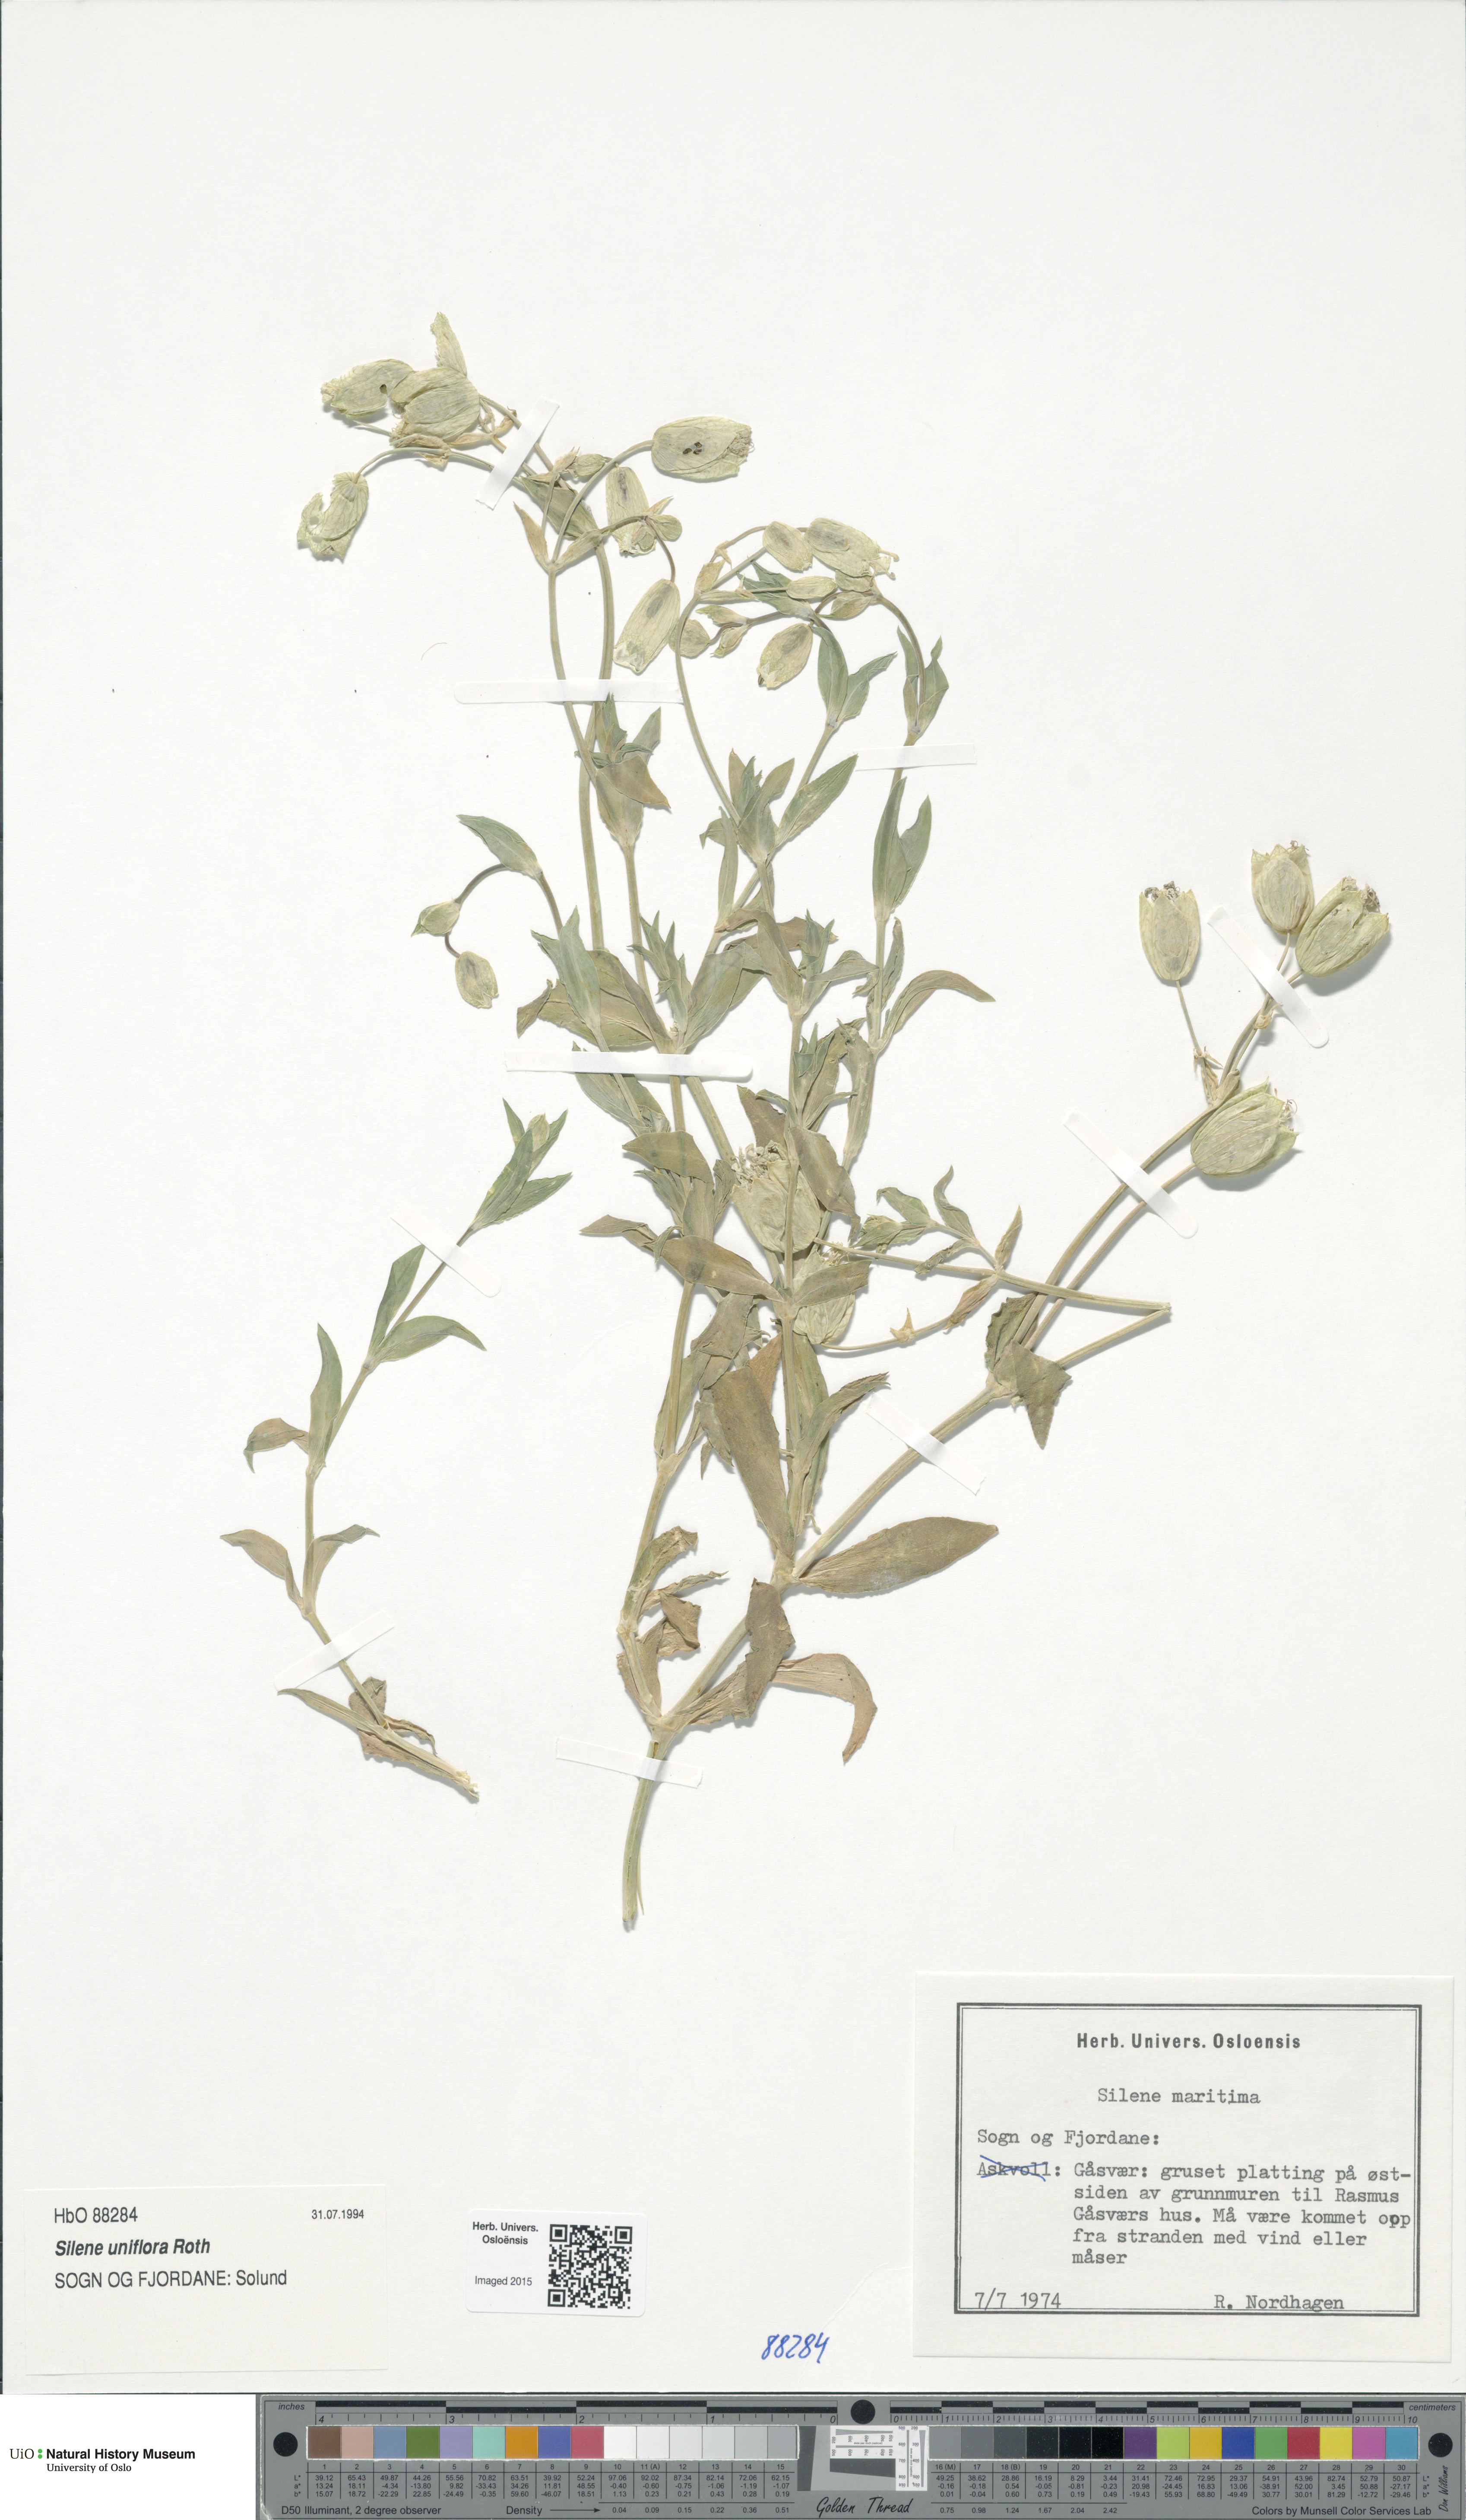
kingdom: Plantae
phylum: Tracheophyta
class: Magnoliopsida
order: Caryophyllales
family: Caryophyllaceae
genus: Silene
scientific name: Silene uniflora
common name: Sea campion
